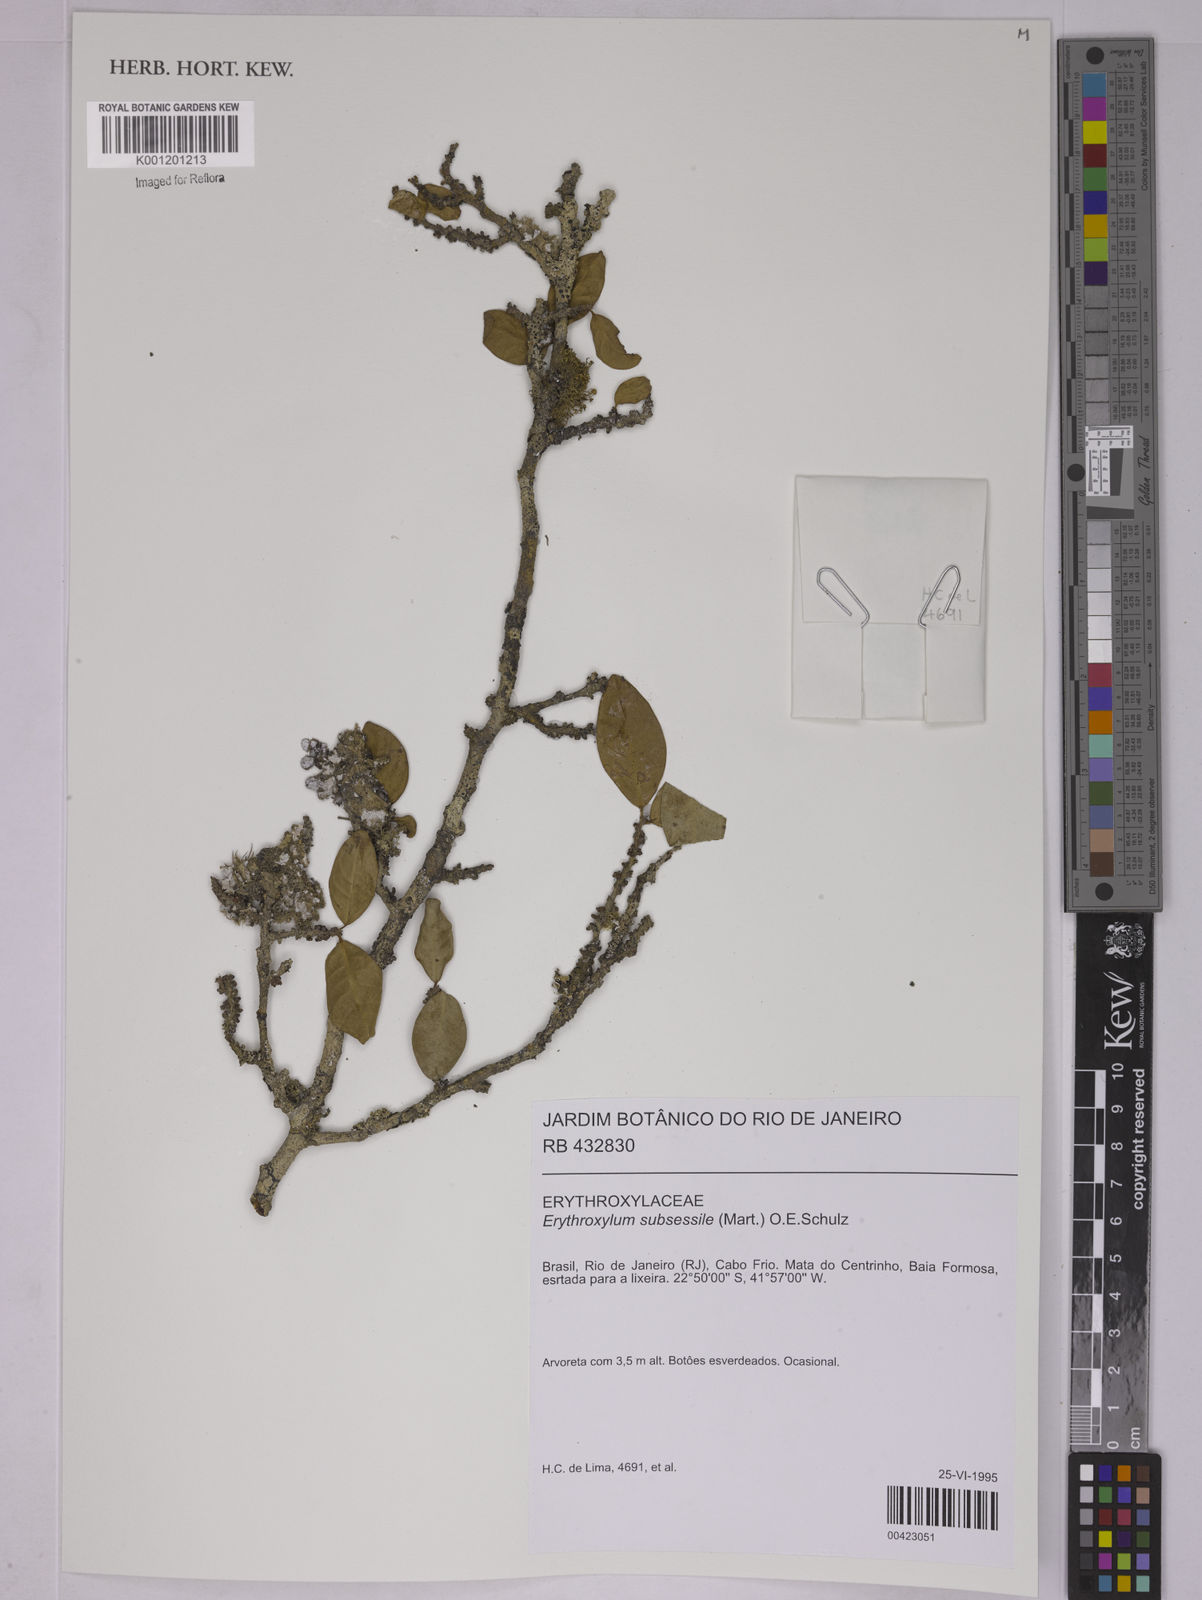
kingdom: Plantae
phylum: Tracheophyta
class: Magnoliopsida
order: Malpighiales
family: Erythroxylaceae
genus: Erythroxylum
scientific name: Erythroxylum macrocalyx
